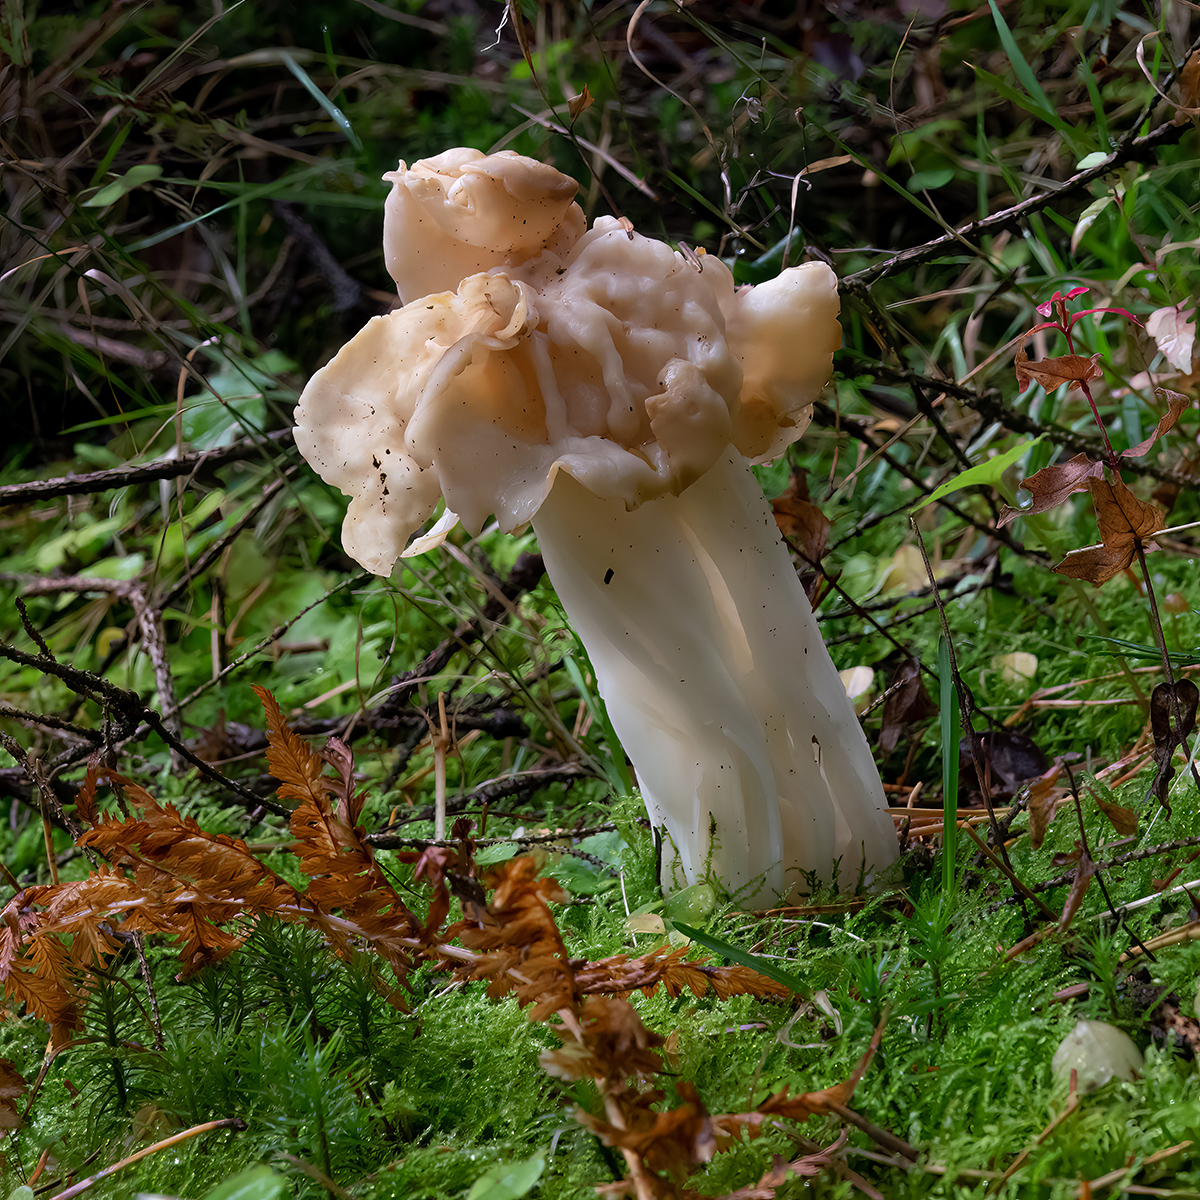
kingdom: Fungi
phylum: Ascomycota
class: Pezizomycetes
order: Pezizales
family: Helvellaceae
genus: Helvella
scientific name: Helvella crispa
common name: kruset foldhat
